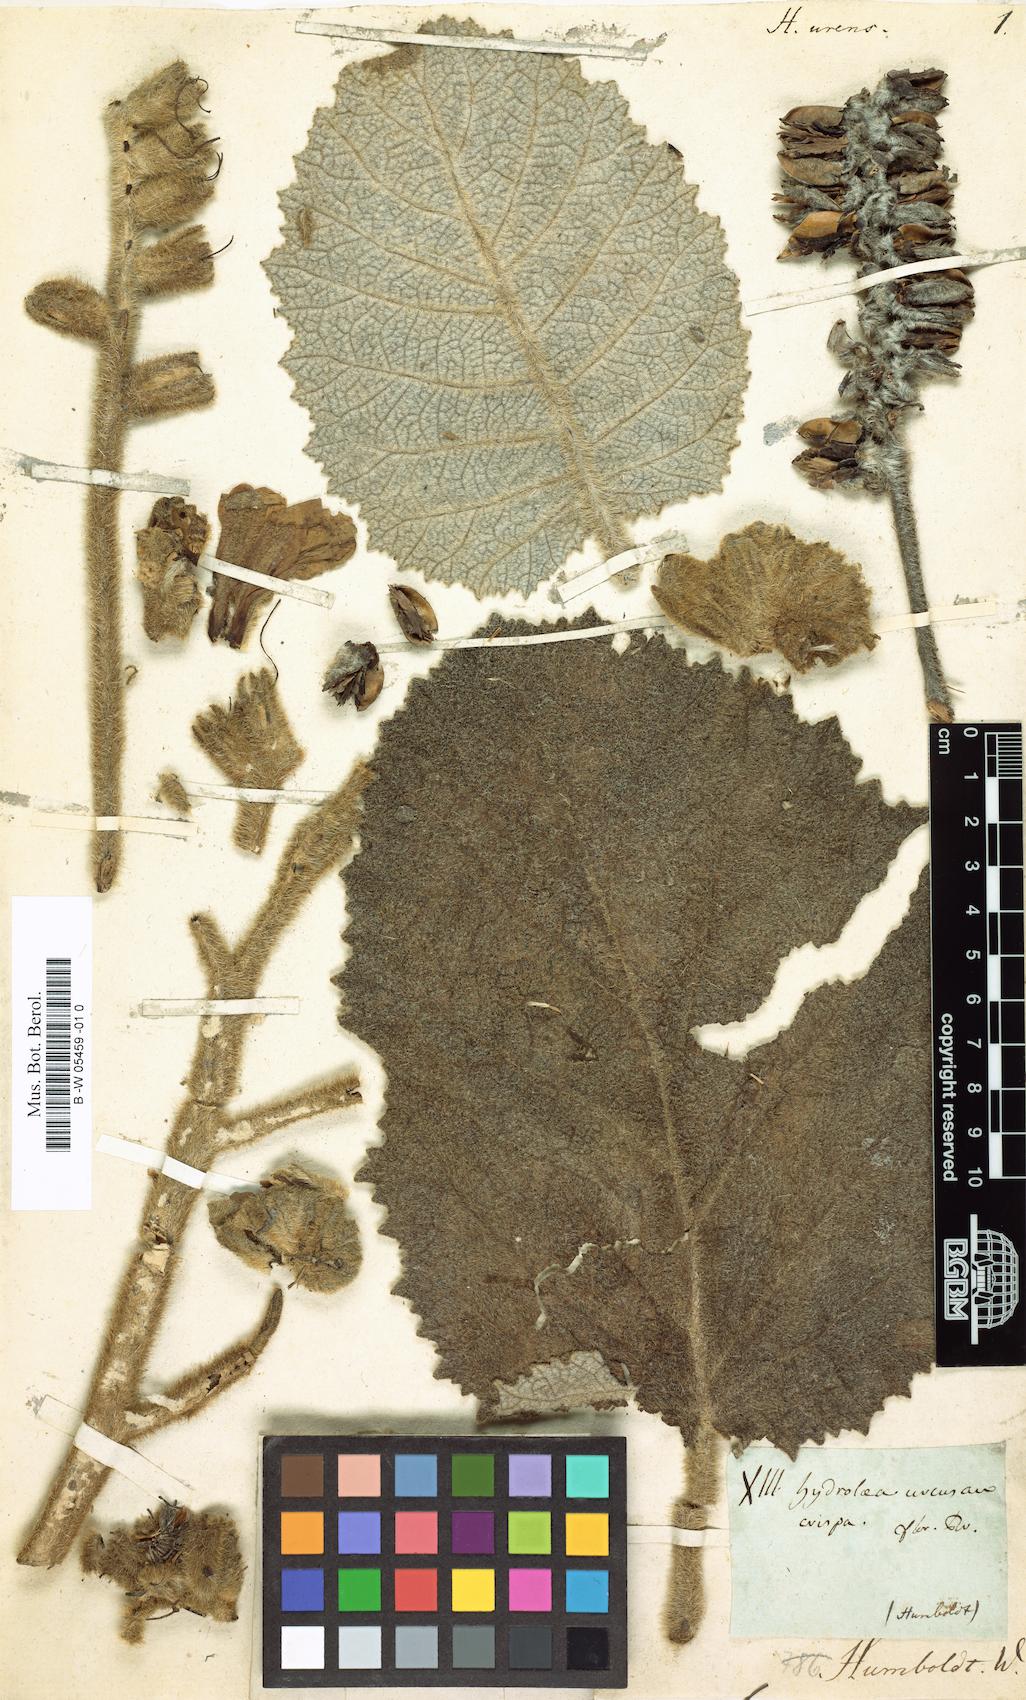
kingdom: Plantae
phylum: Tracheophyta
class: Magnoliopsida
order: Boraginales
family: Namaceae
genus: Wigandia
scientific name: Wigandia urens
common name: Caracus wigandia
